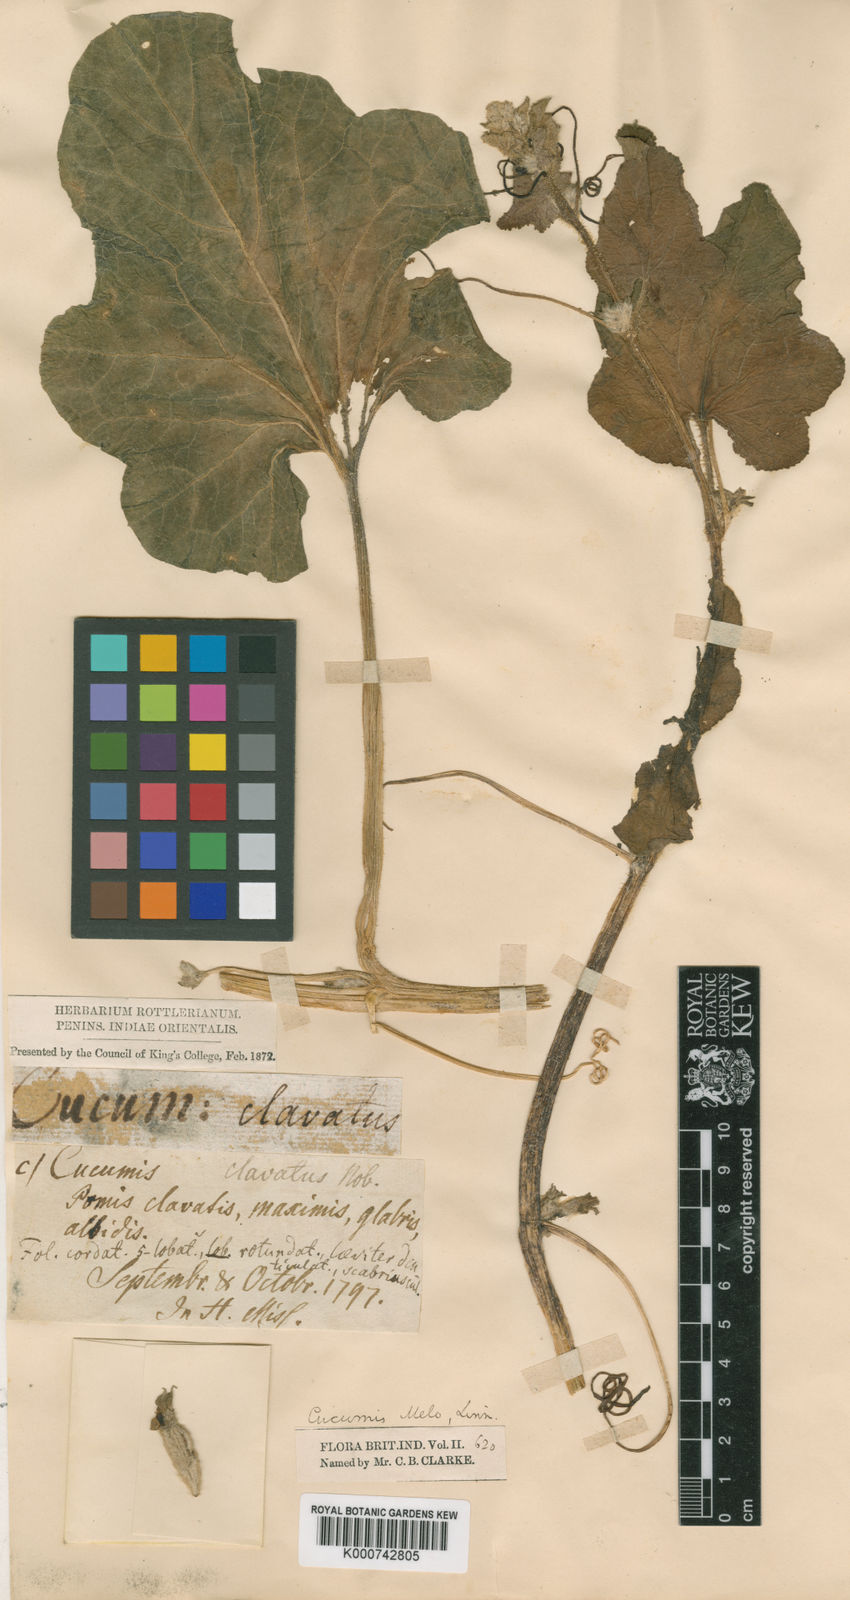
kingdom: Plantae
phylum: Tracheophyta
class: Magnoliopsida
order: Cucurbitales
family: Cucurbitaceae
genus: Cucumis
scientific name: Cucumis
